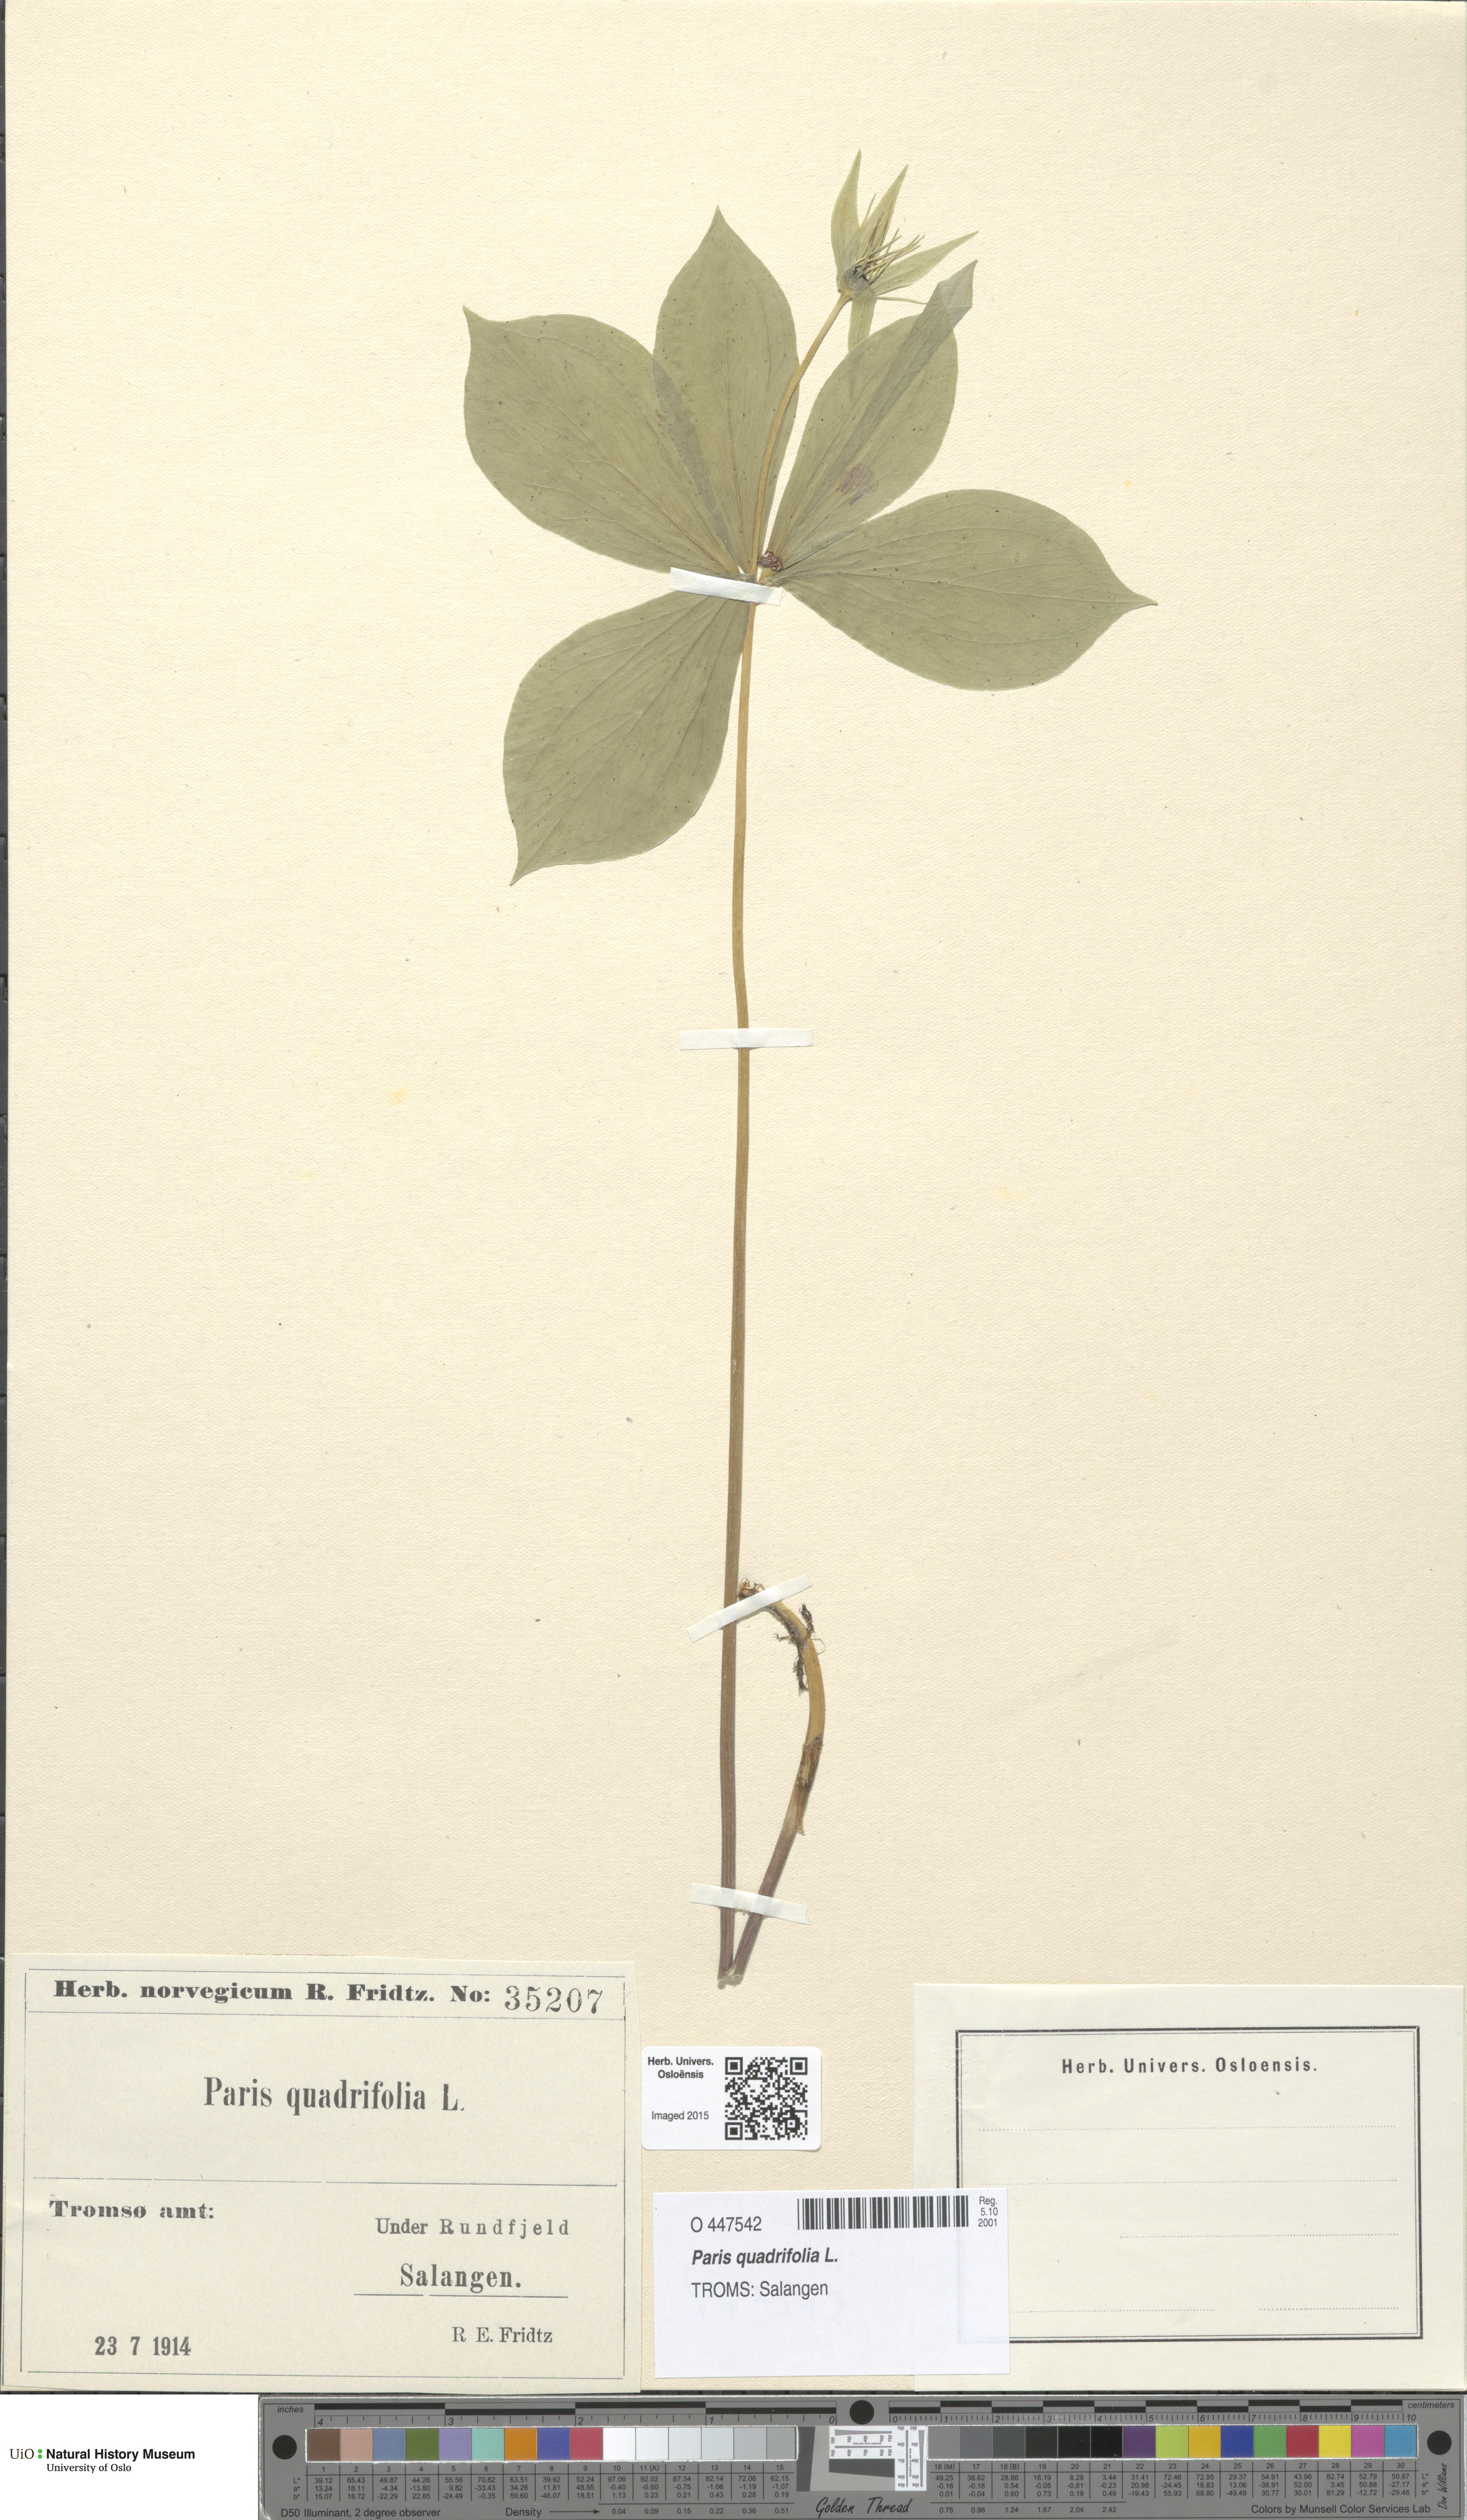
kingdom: Plantae
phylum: Tracheophyta
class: Liliopsida
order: Liliales
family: Melanthiaceae
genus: Paris
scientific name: Paris quadrifolia
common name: Herb-paris
